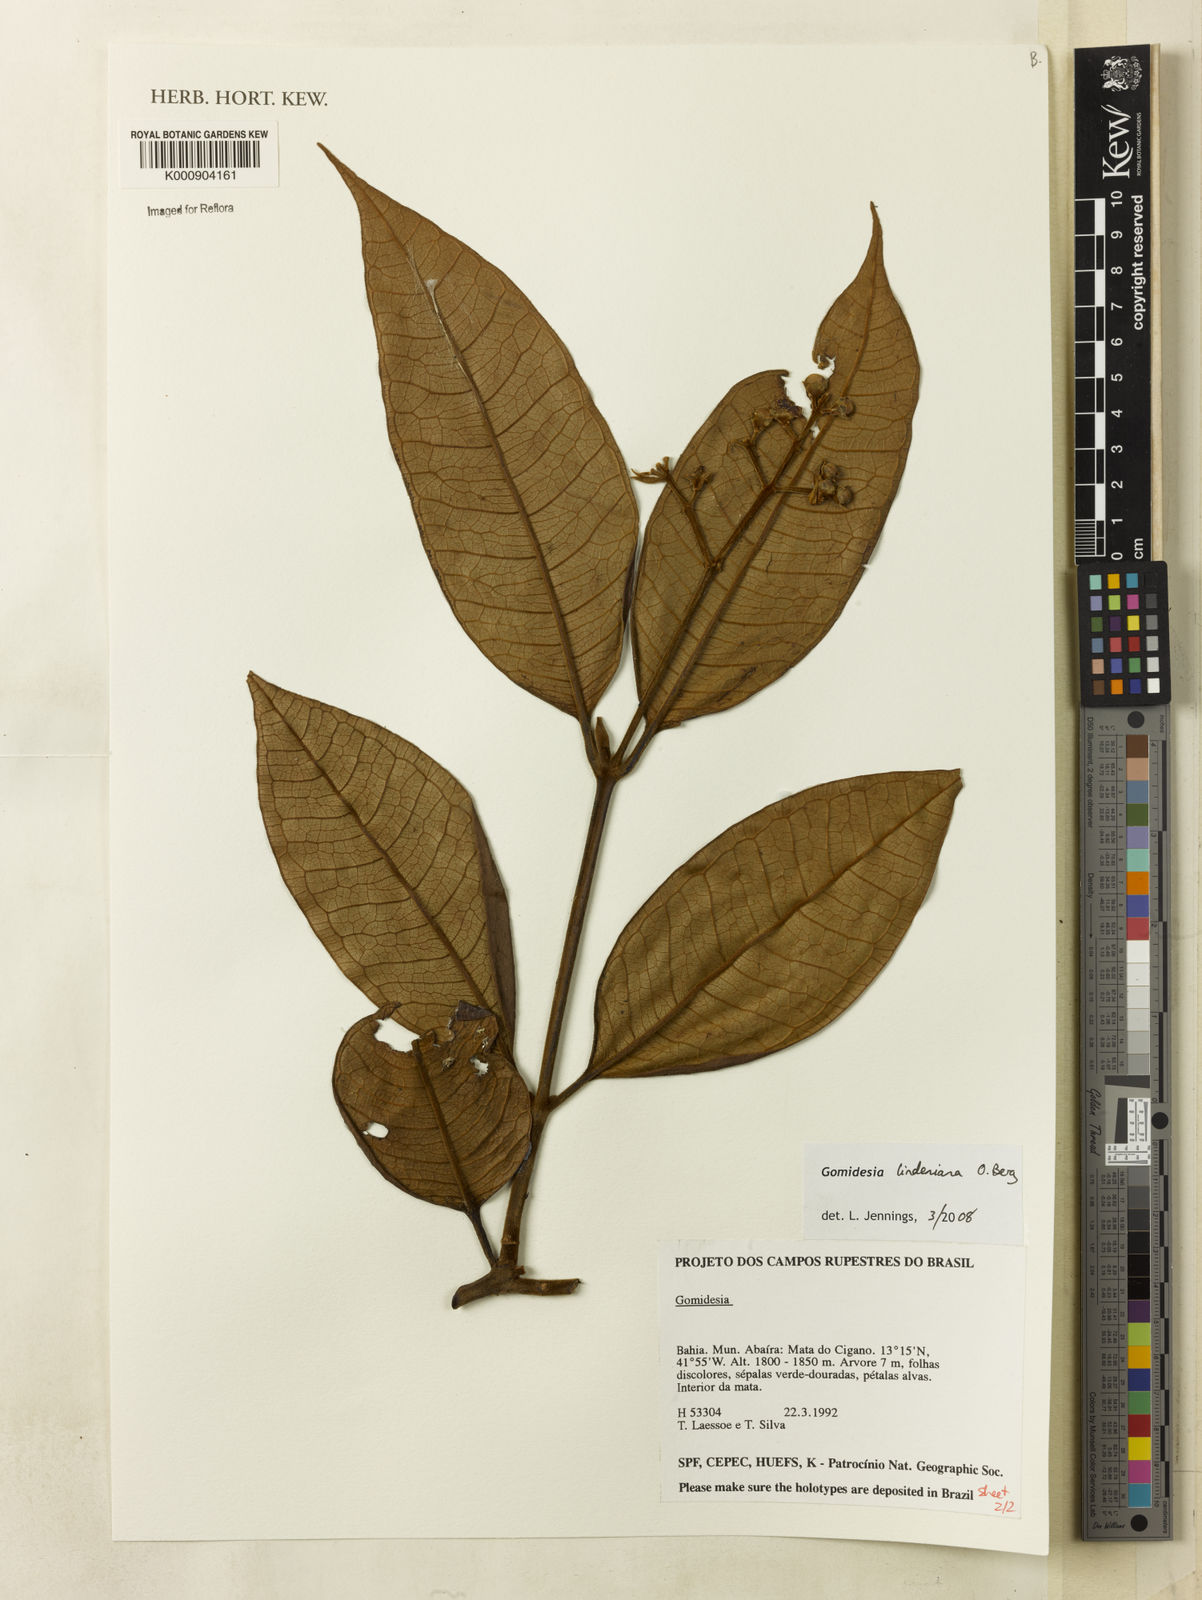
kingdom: Plantae
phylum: Tracheophyta
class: Magnoliopsida
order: Myrtales
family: Myrtaceae
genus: Myrcia
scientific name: Myrcia fenzliana
